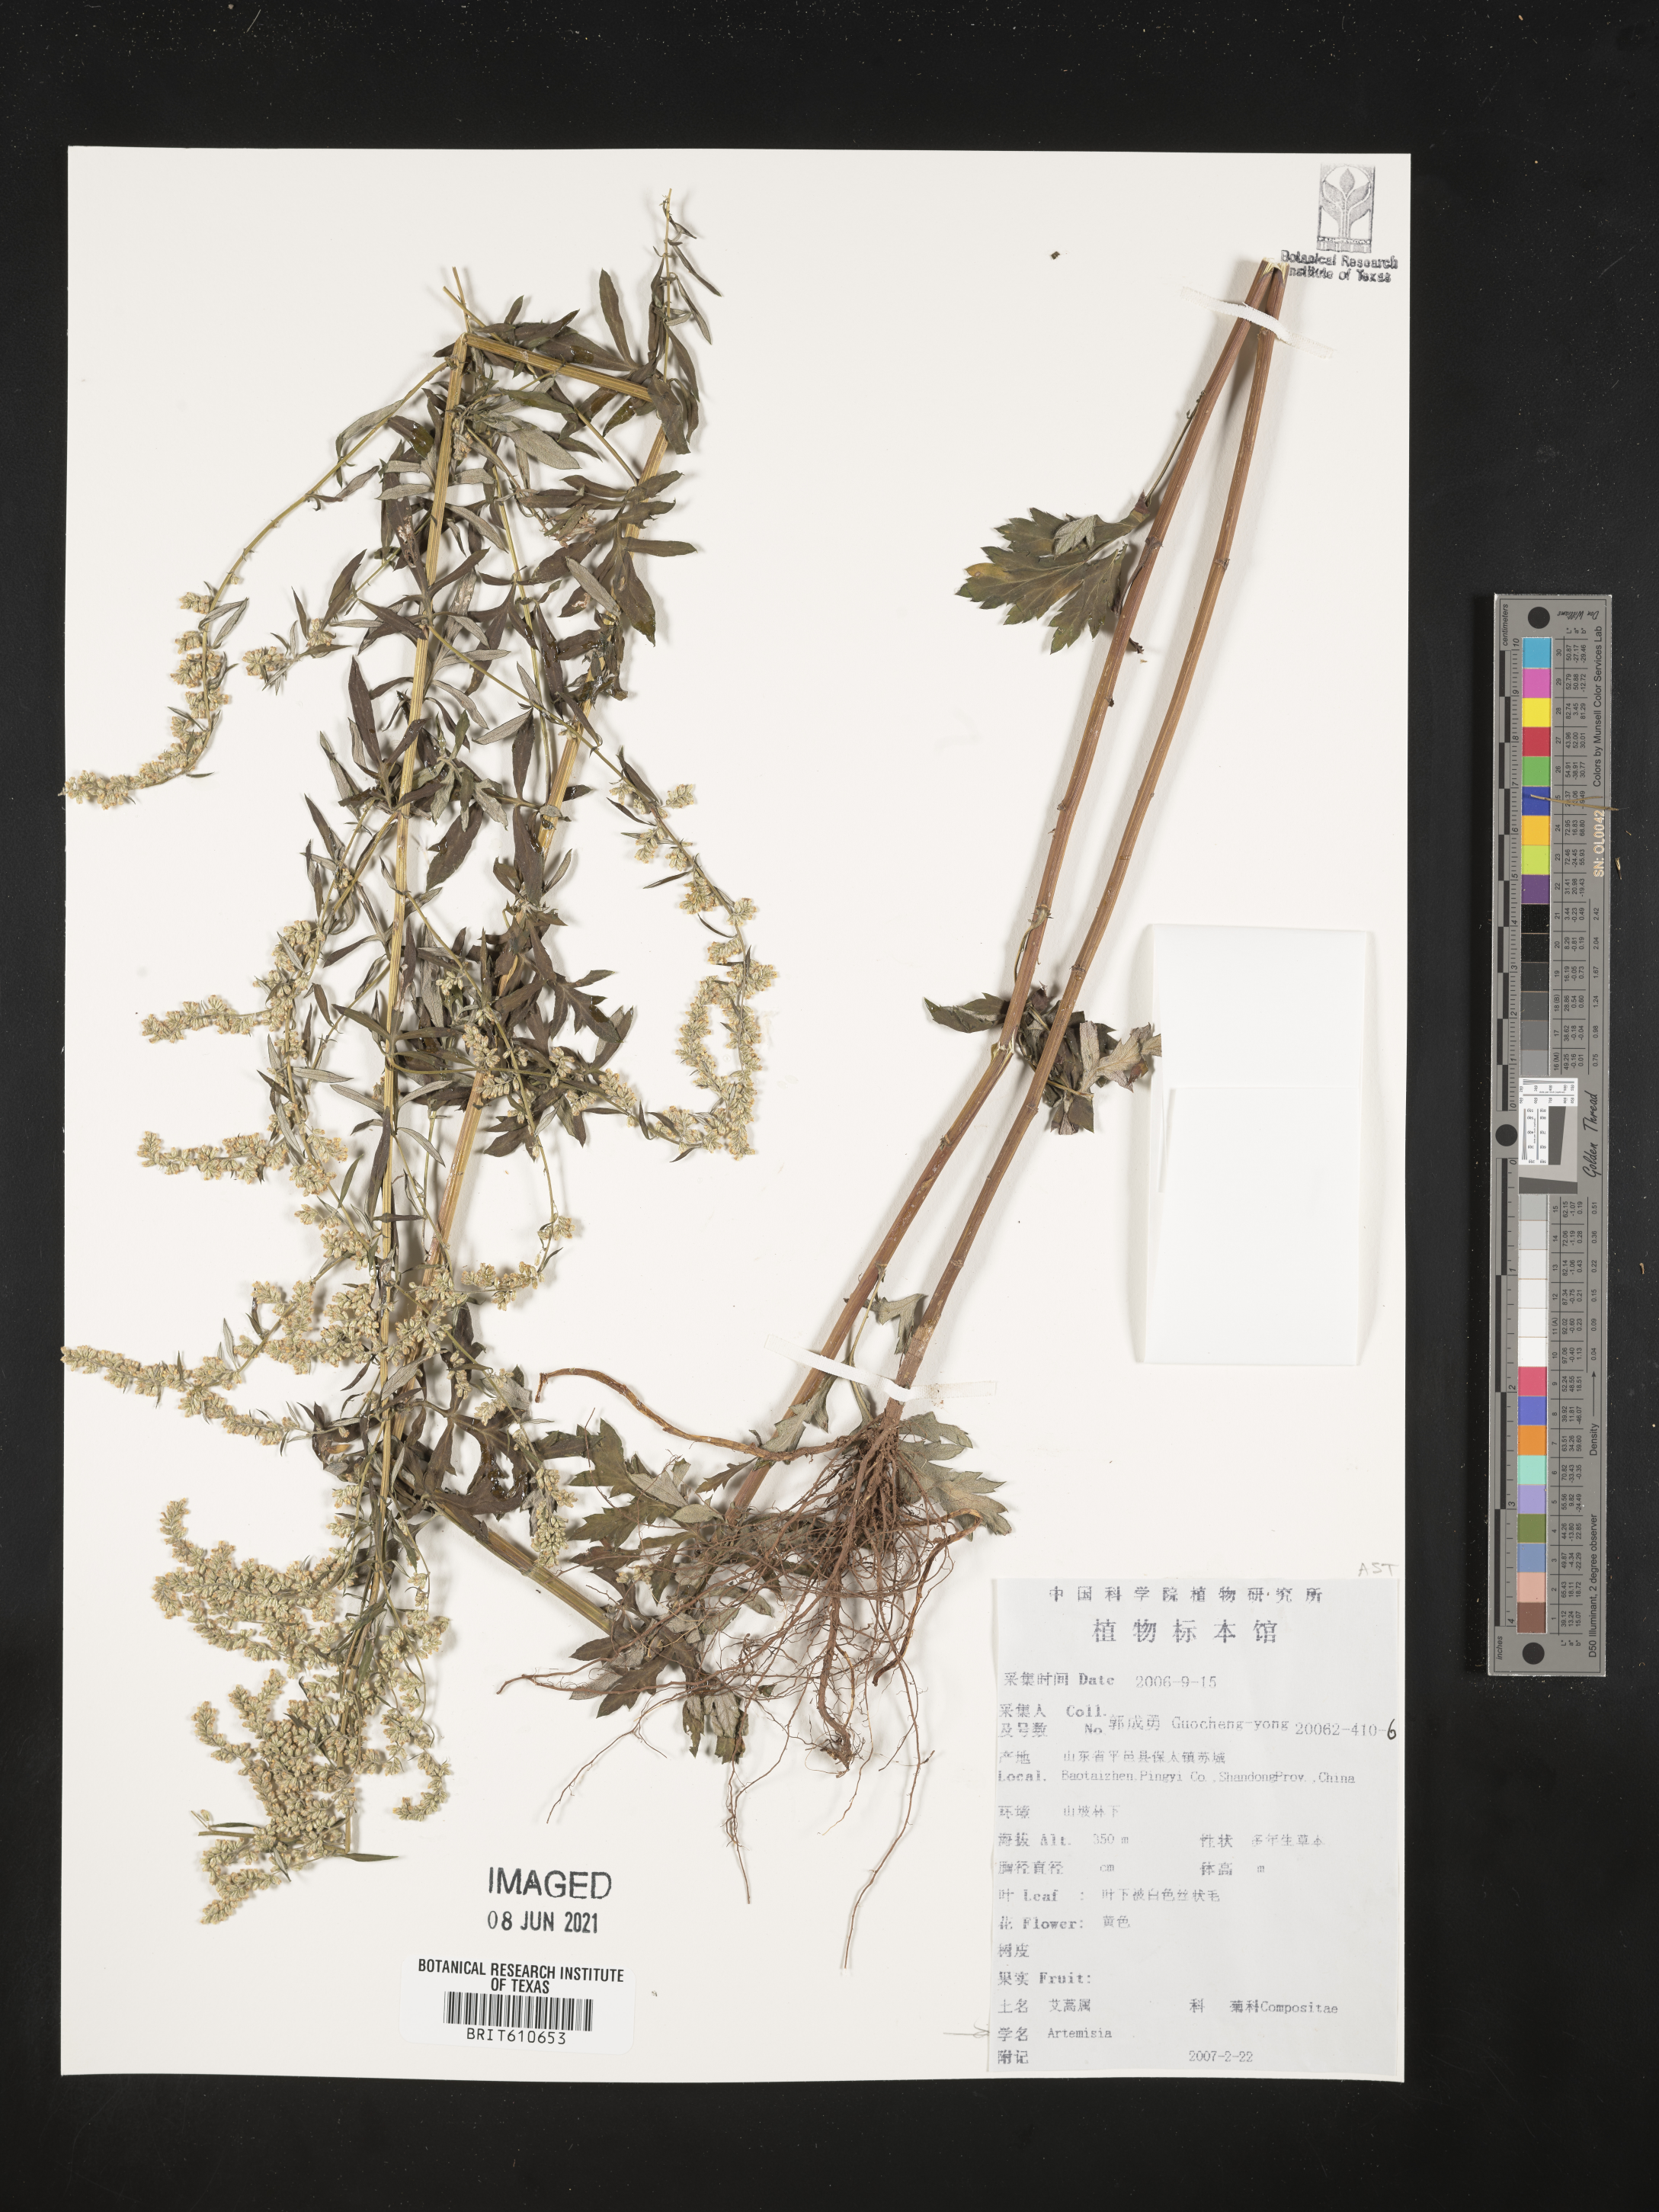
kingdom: Plantae
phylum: Tracheophyta
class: Magnoliopsida
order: Asterales
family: Asteraceae
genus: Artemisia
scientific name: Artemisia
